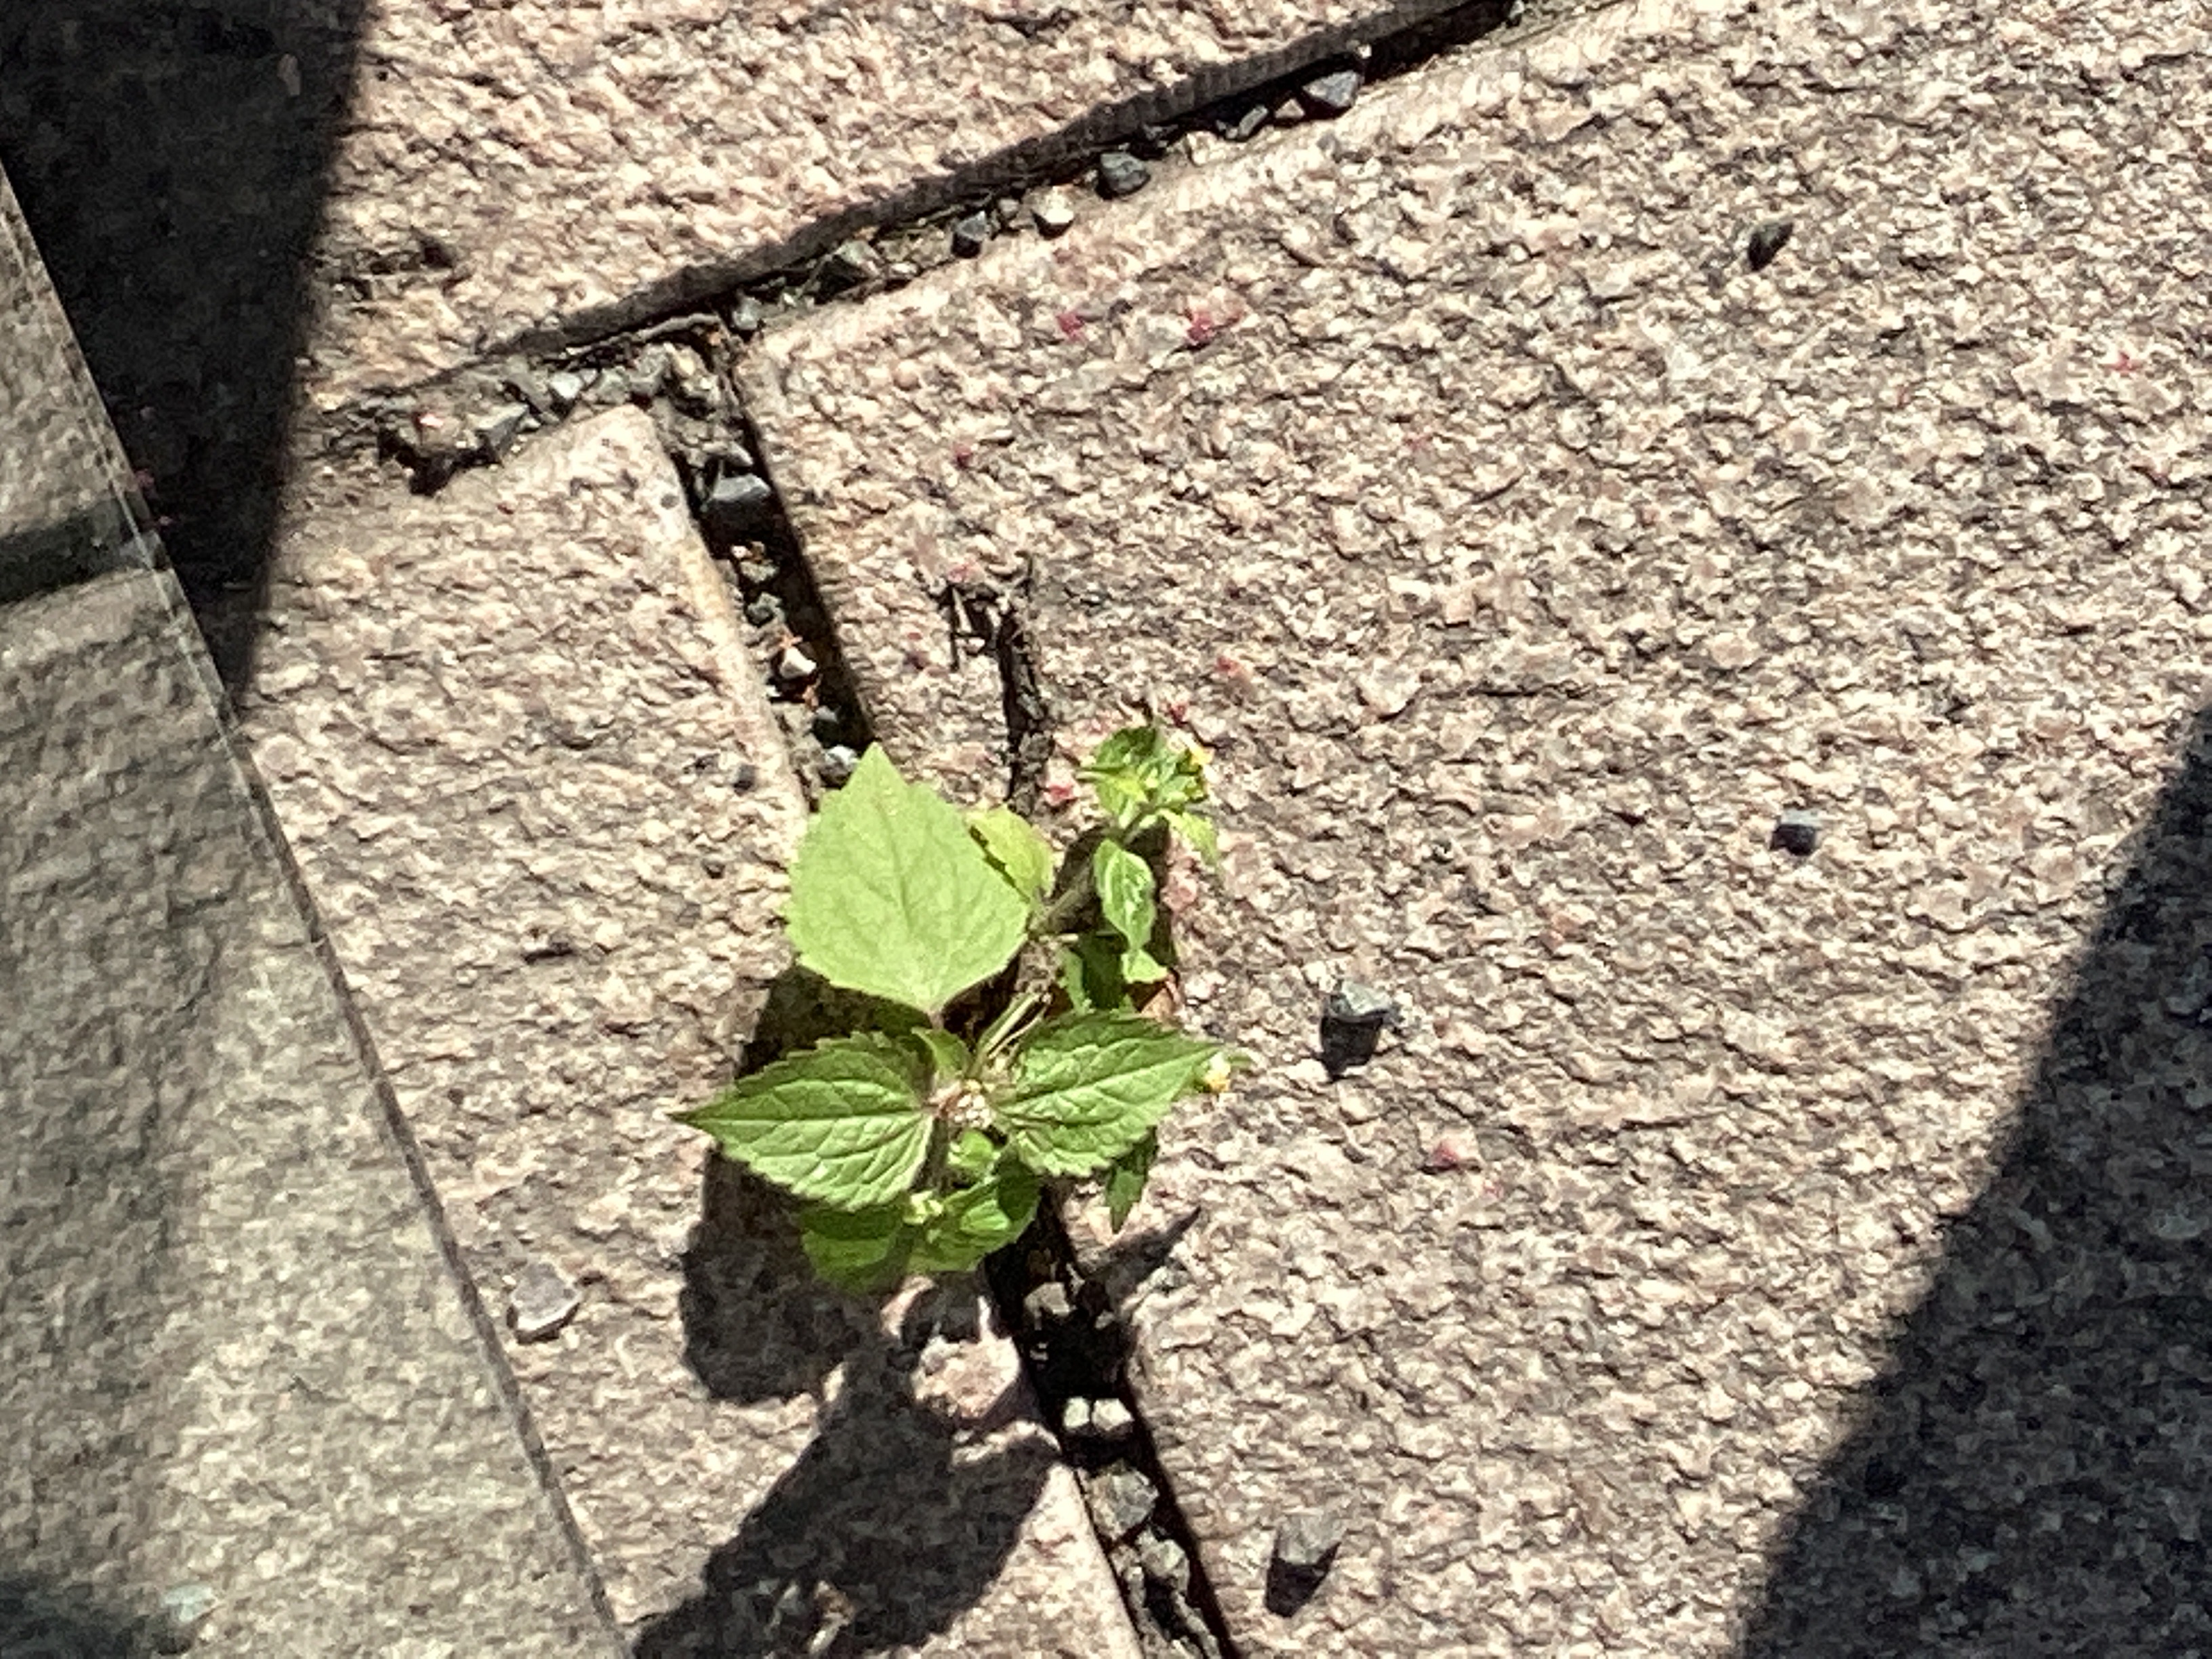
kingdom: Plantae
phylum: Tracheophyta
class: Magnoliopsida
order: Asterales
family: Asteraceae
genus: Galinsoga
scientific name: Galinsoga quadriradiata
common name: nesleskjellfrø
